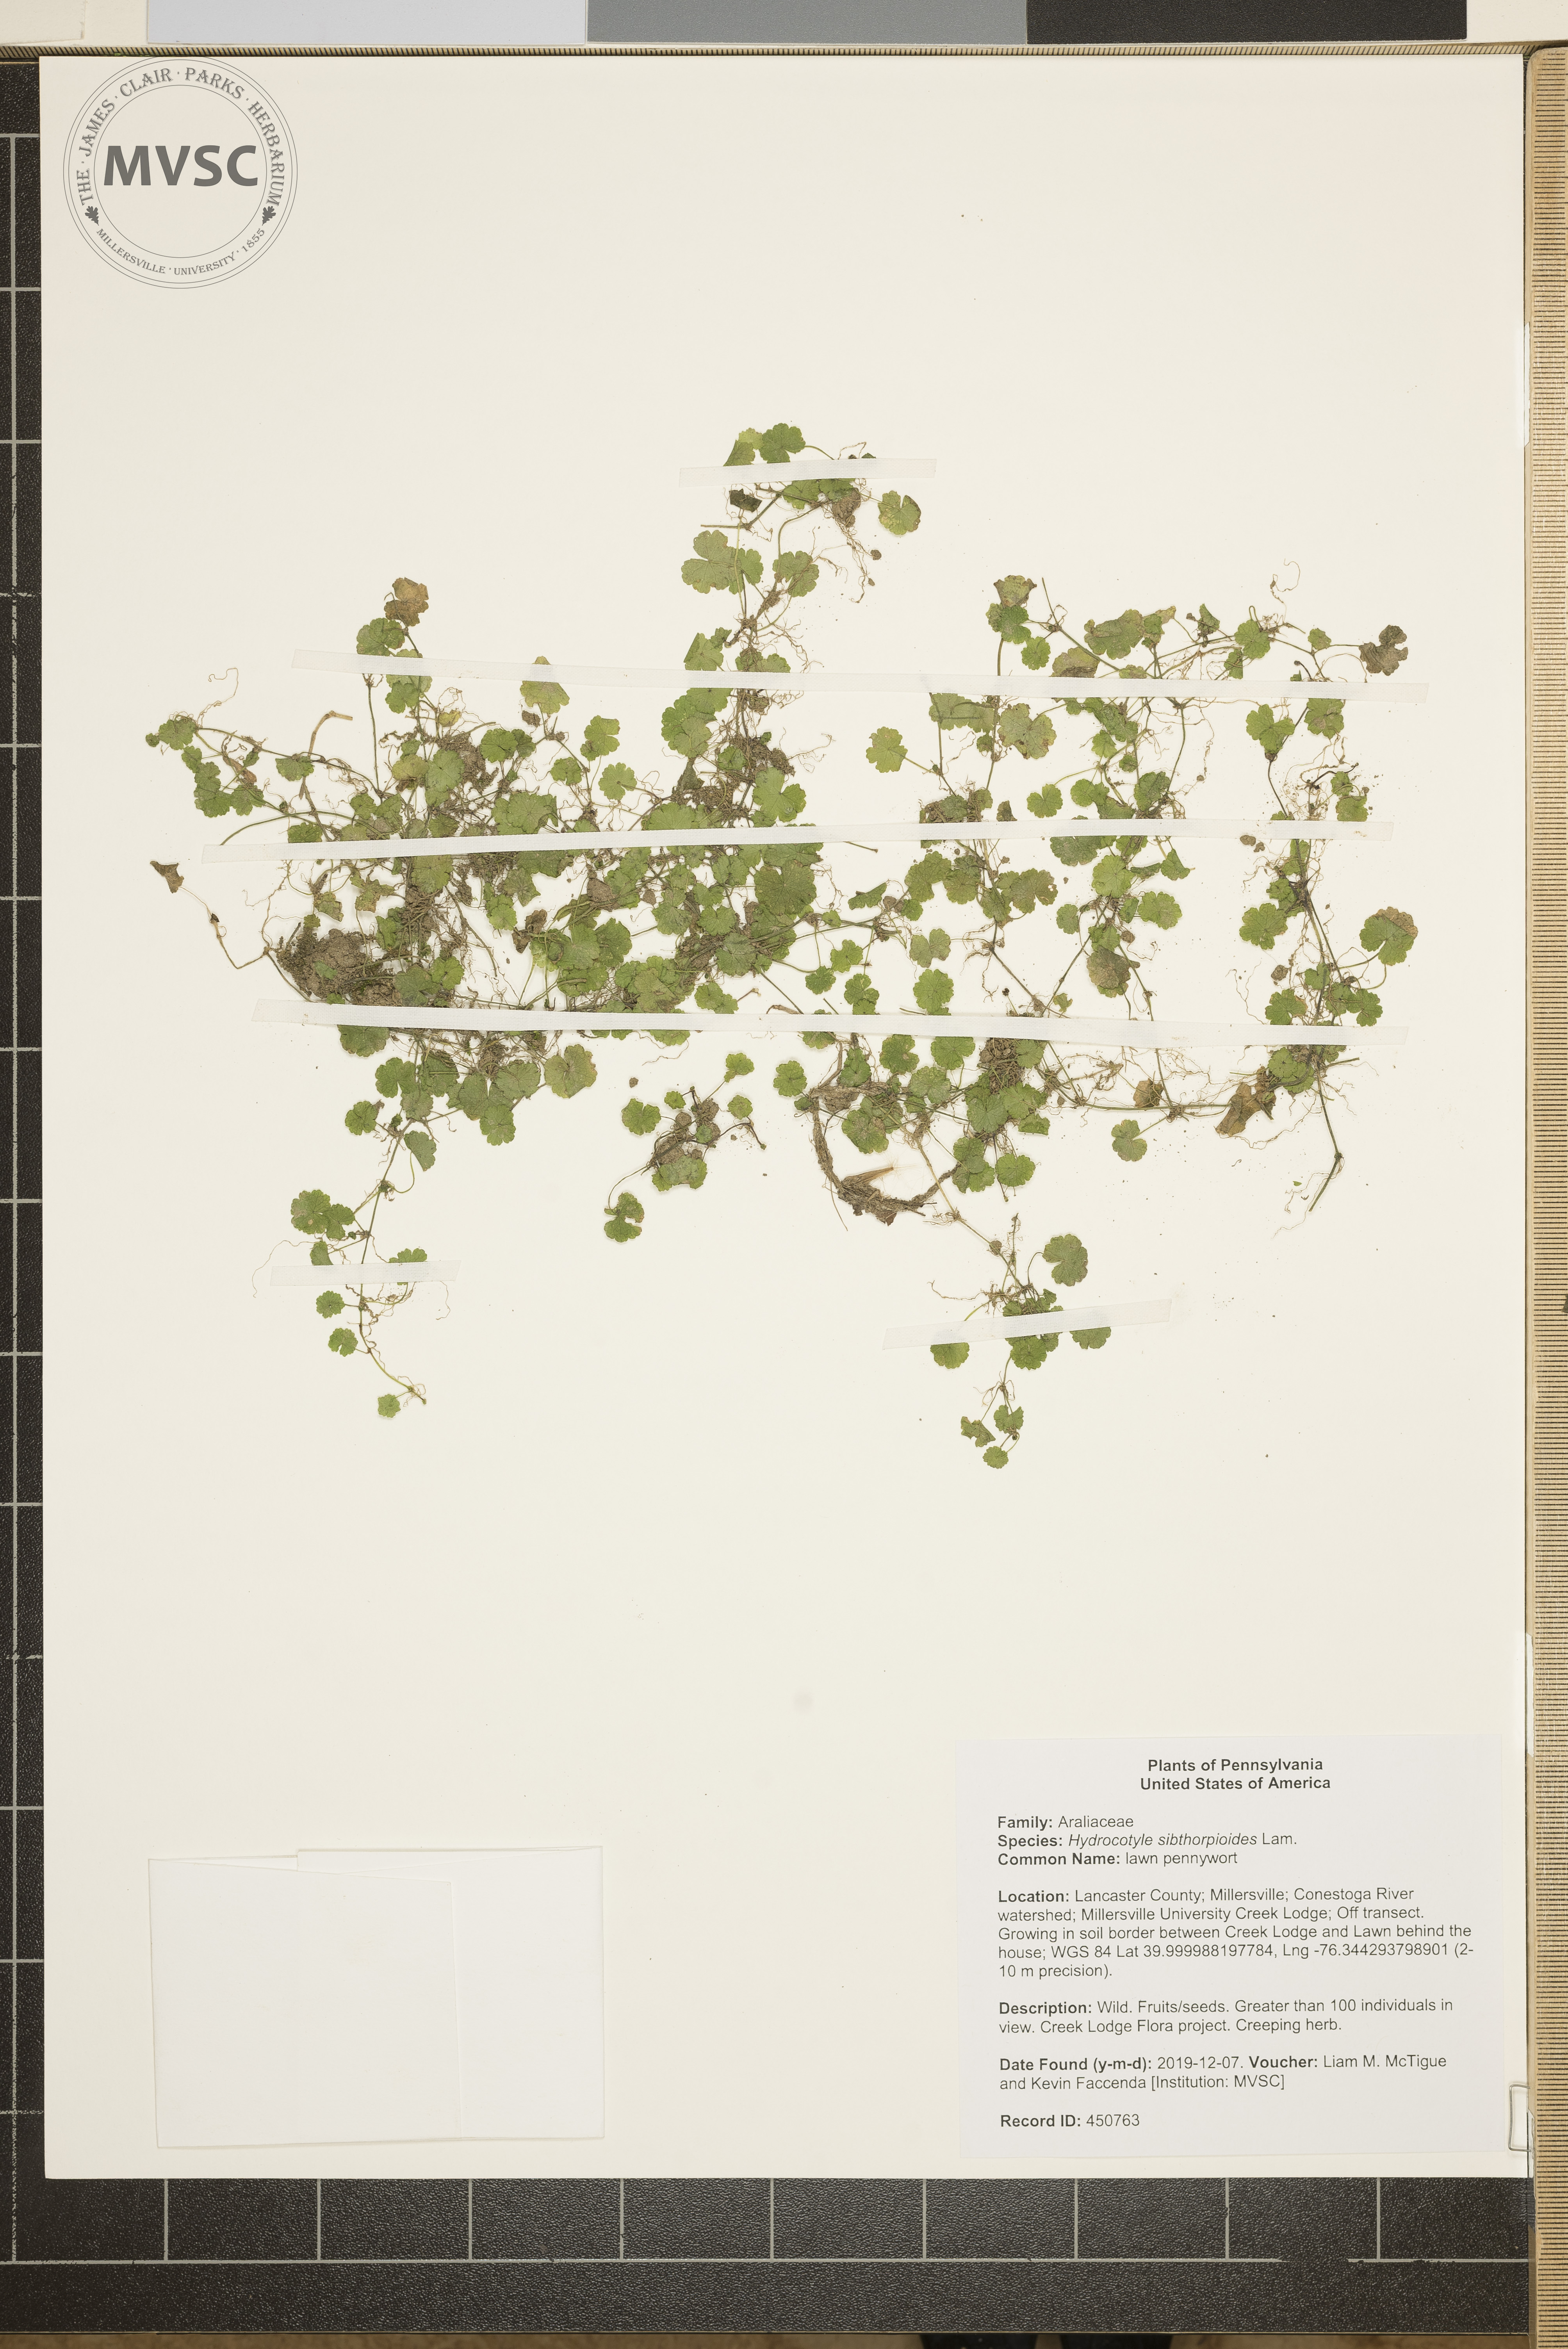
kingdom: Plantae
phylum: Tracheophyta
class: Magnoliopsida
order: Apiales
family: Araliaceae
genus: Hydrocotyle
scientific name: Hydrocotyle sibthorpioides
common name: lawn pennywort
